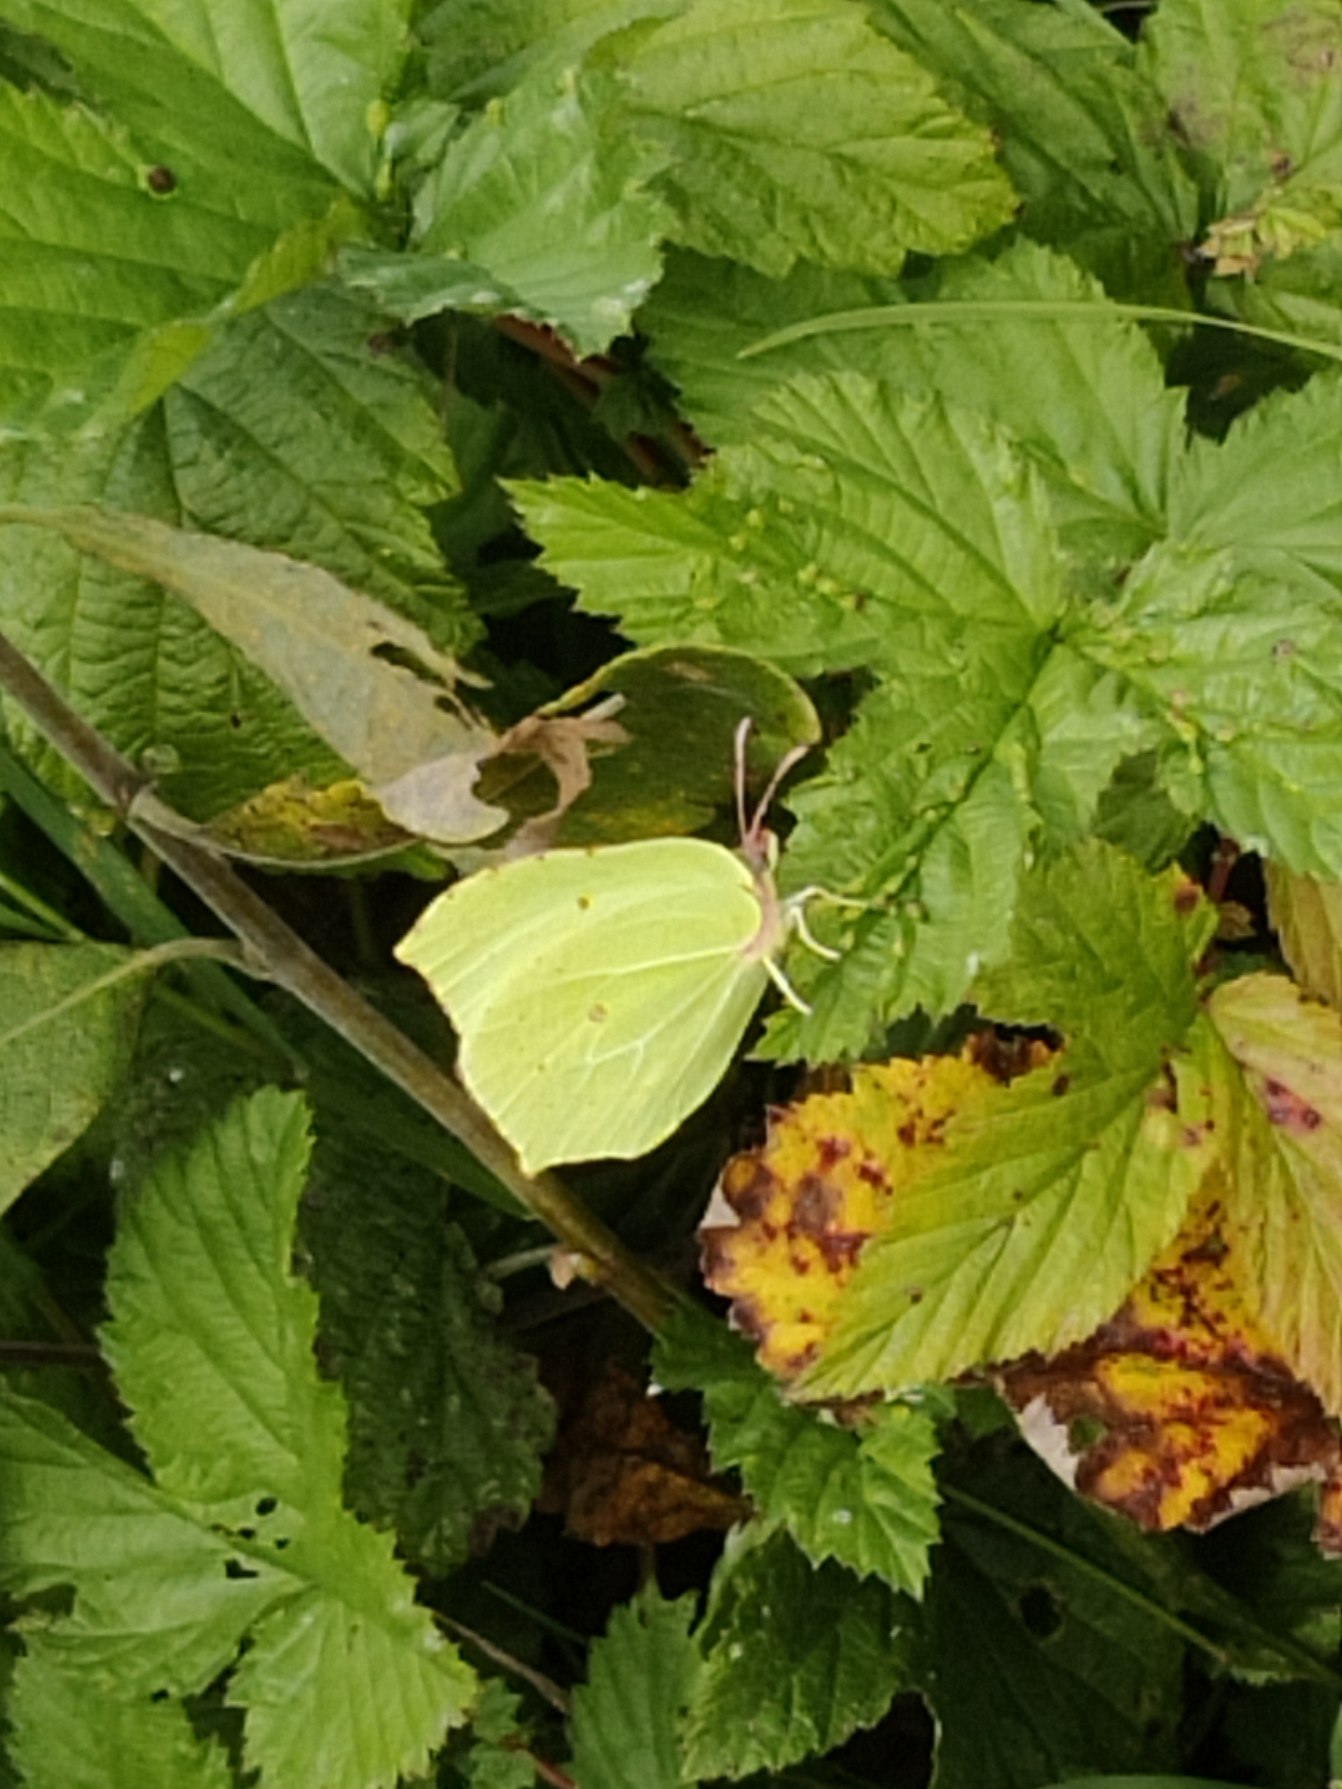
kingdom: Animalia
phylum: Arthropoda
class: Insecta
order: Lepidoptera
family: Pieridae
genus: Gonepteryx
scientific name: Gonepteryx rhamni
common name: Citronsommerfugl
